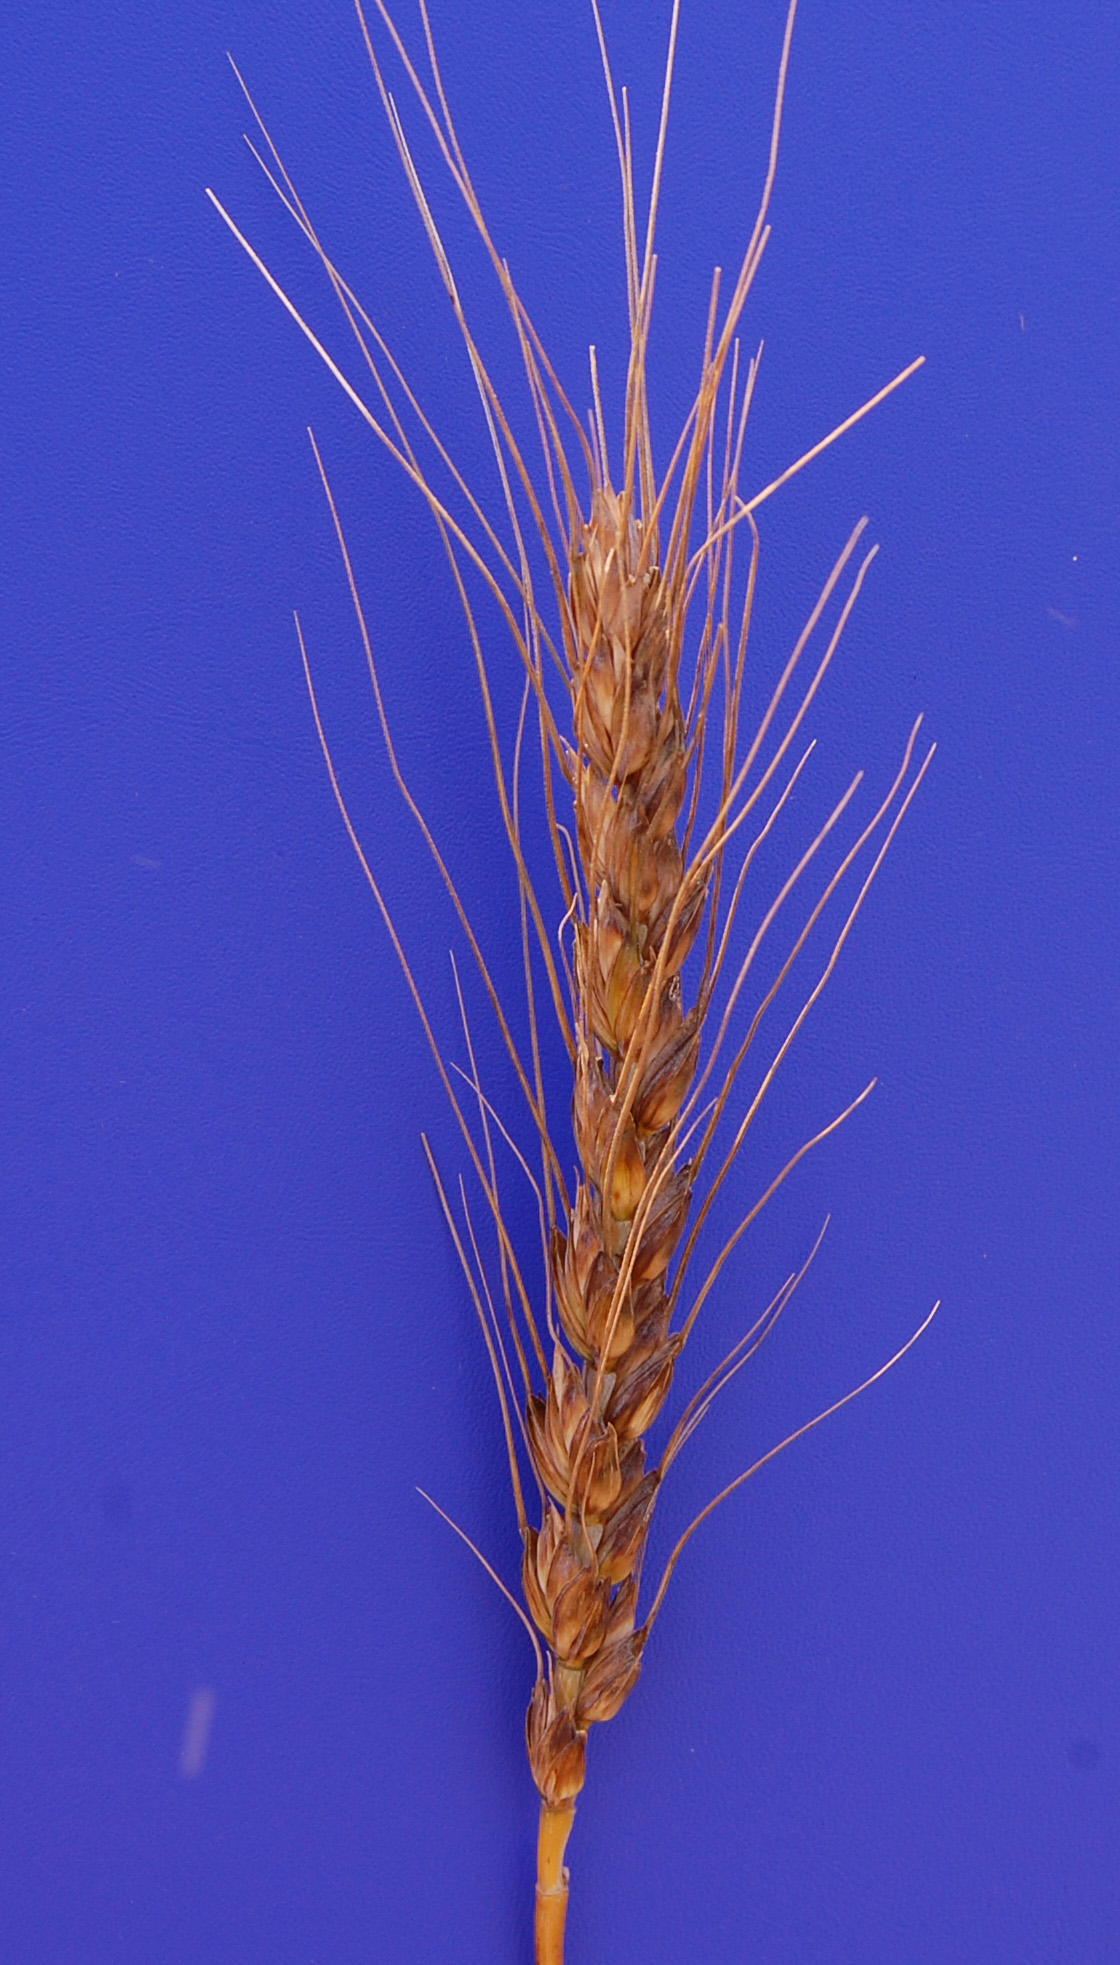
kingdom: Plantae
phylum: Tracheophyta
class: Liliopsida
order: Poales
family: Poaceae
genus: Triticum
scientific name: Triticum aestivum
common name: Common wheat
